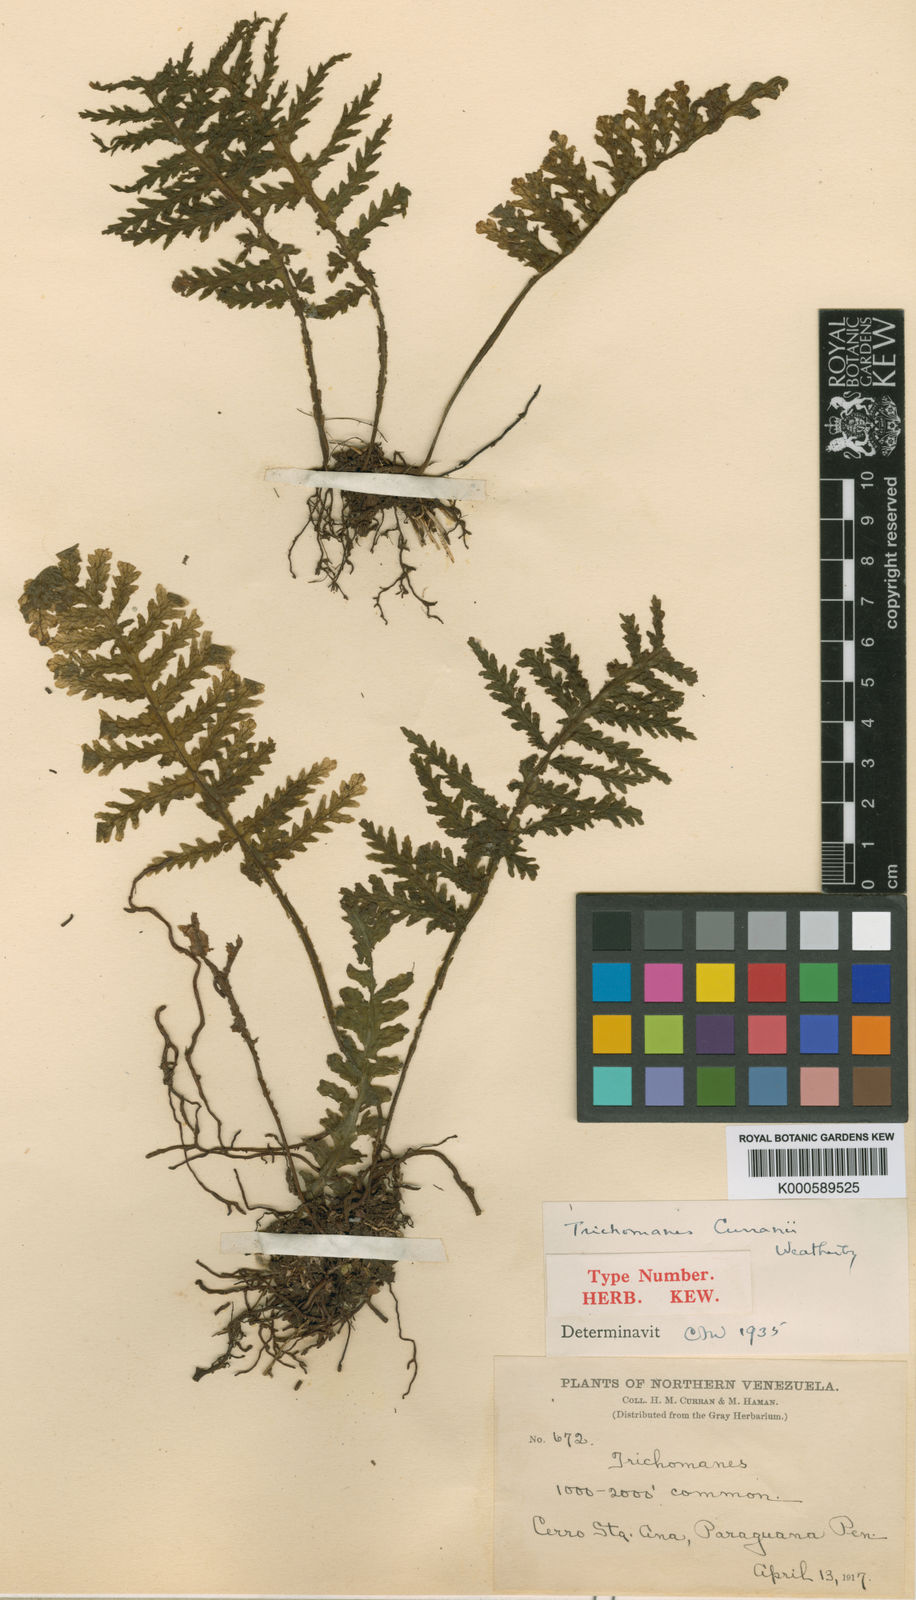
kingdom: Plantae
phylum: Tracheophyta
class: Polypodiopsida
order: Hymenophyllales
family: Hymenophyllaceae
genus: Trichomanes
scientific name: Trichomanes curranii
